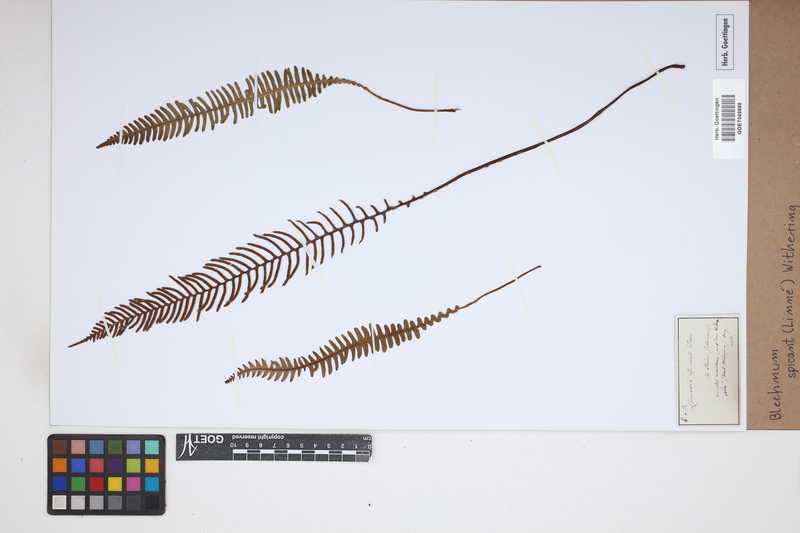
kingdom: Plantae
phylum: Tracheophyta
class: Polypodiopsida
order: Polypodiales
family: Blechnaceae
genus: Struthiopteris
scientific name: Struthiopteris spicant
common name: Deer fern
